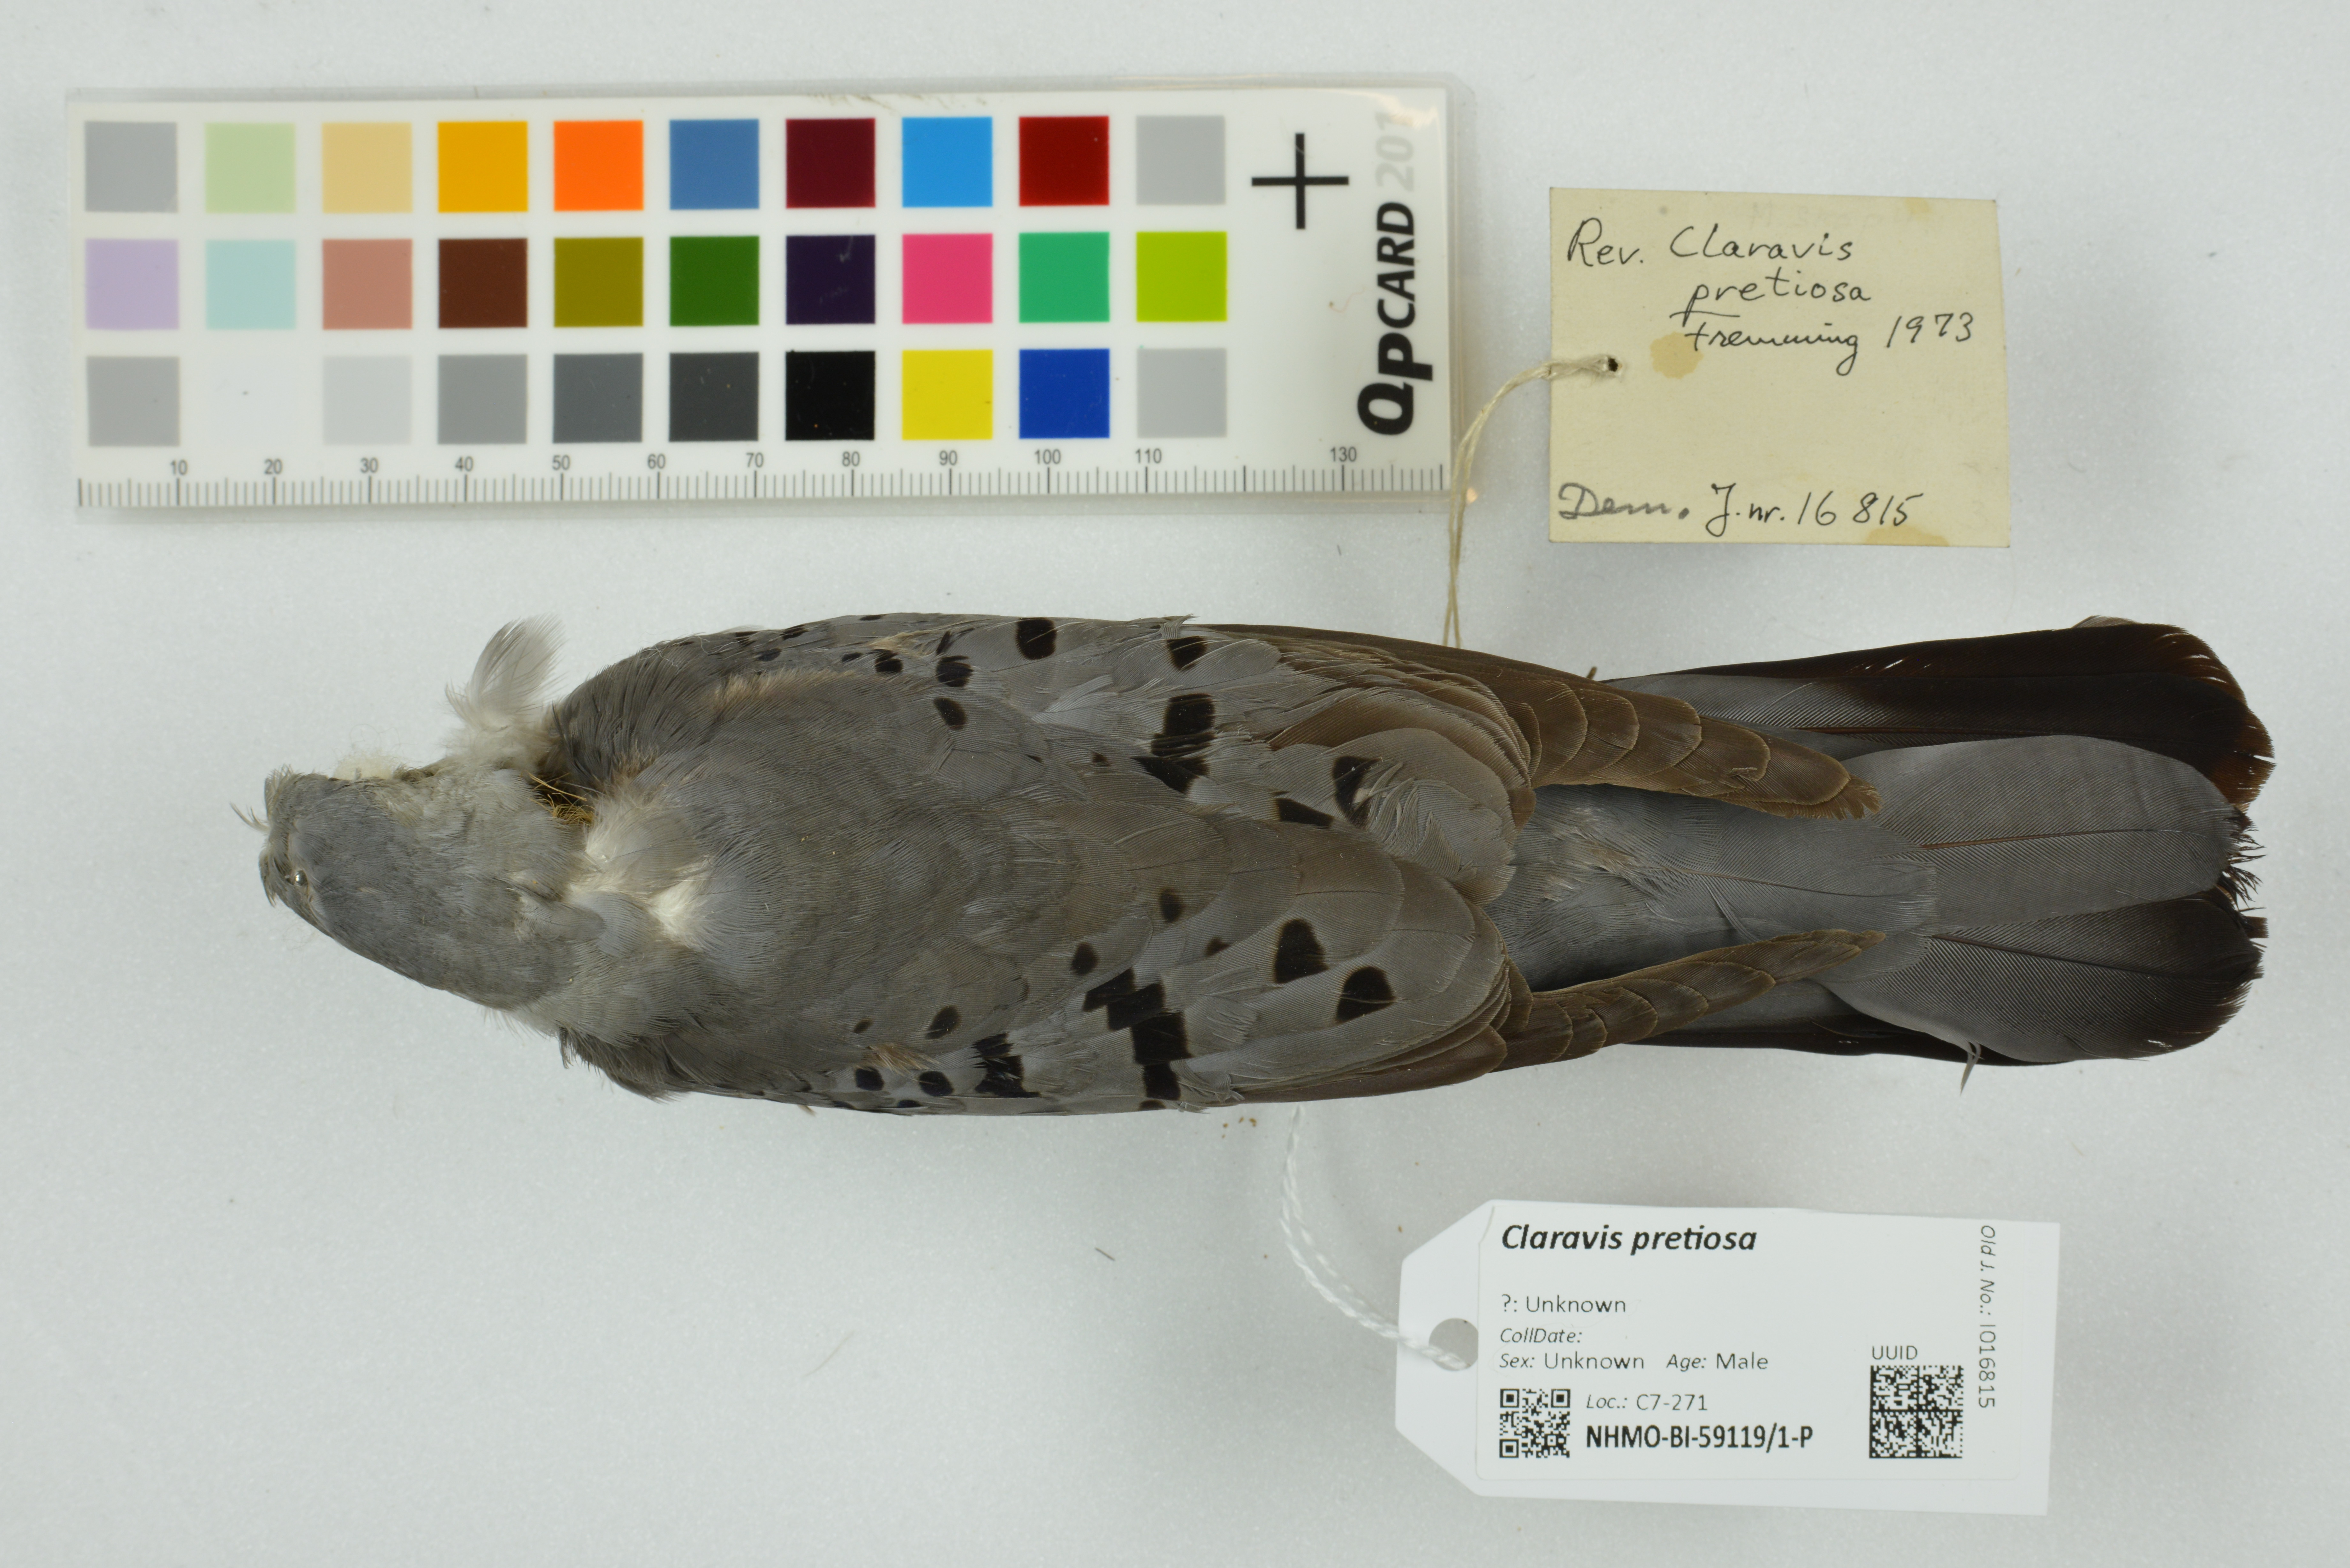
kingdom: Animalia
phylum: Chordata
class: Aves
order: Columbiformes
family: Columbidae
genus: Claravis
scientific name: Claravis pretiosa
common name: Blue ground-dove
